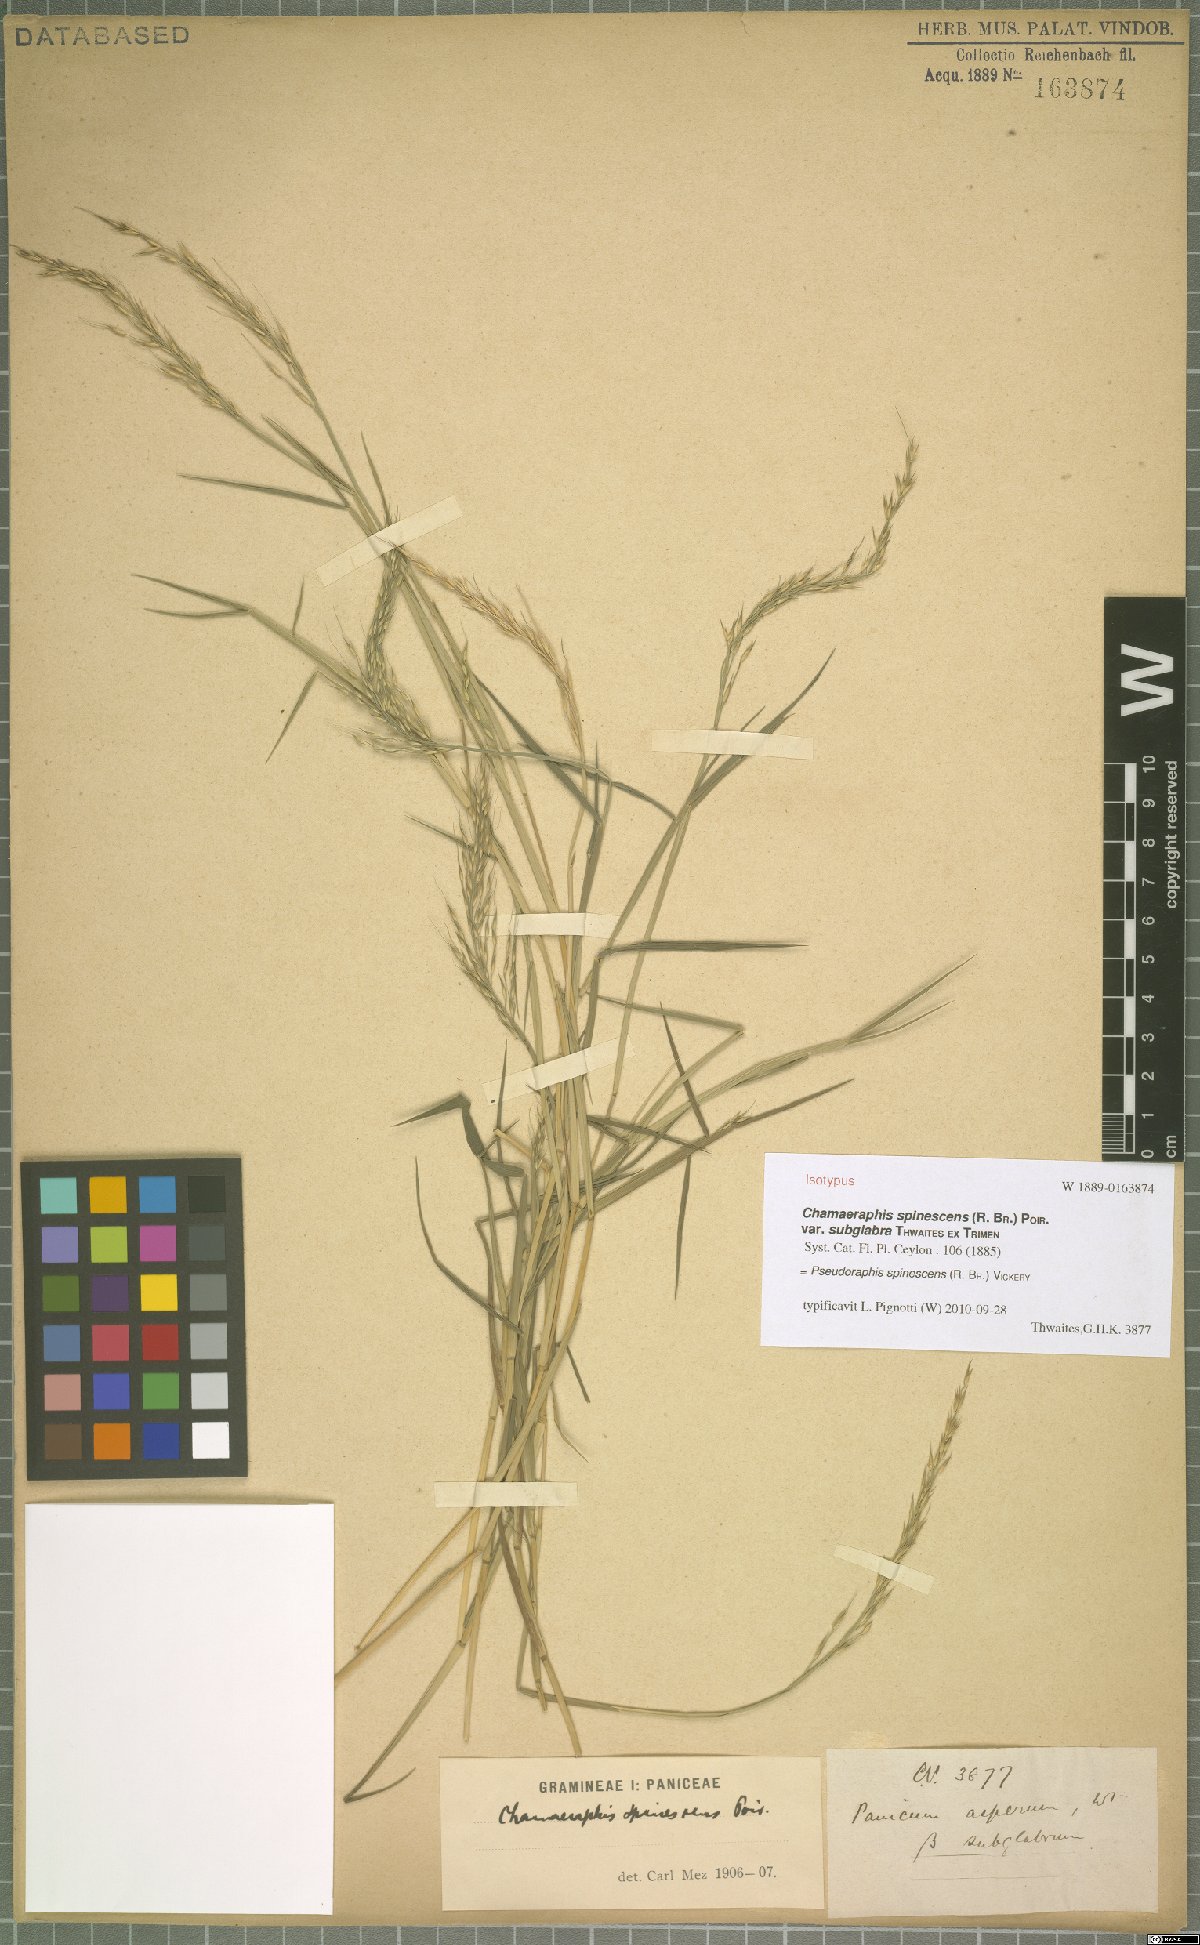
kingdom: Plantae
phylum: Tracheophyta
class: Liliopsida
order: Poales
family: Poaceae
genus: Pseudoraphis
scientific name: Pseudoraphis spinescens
